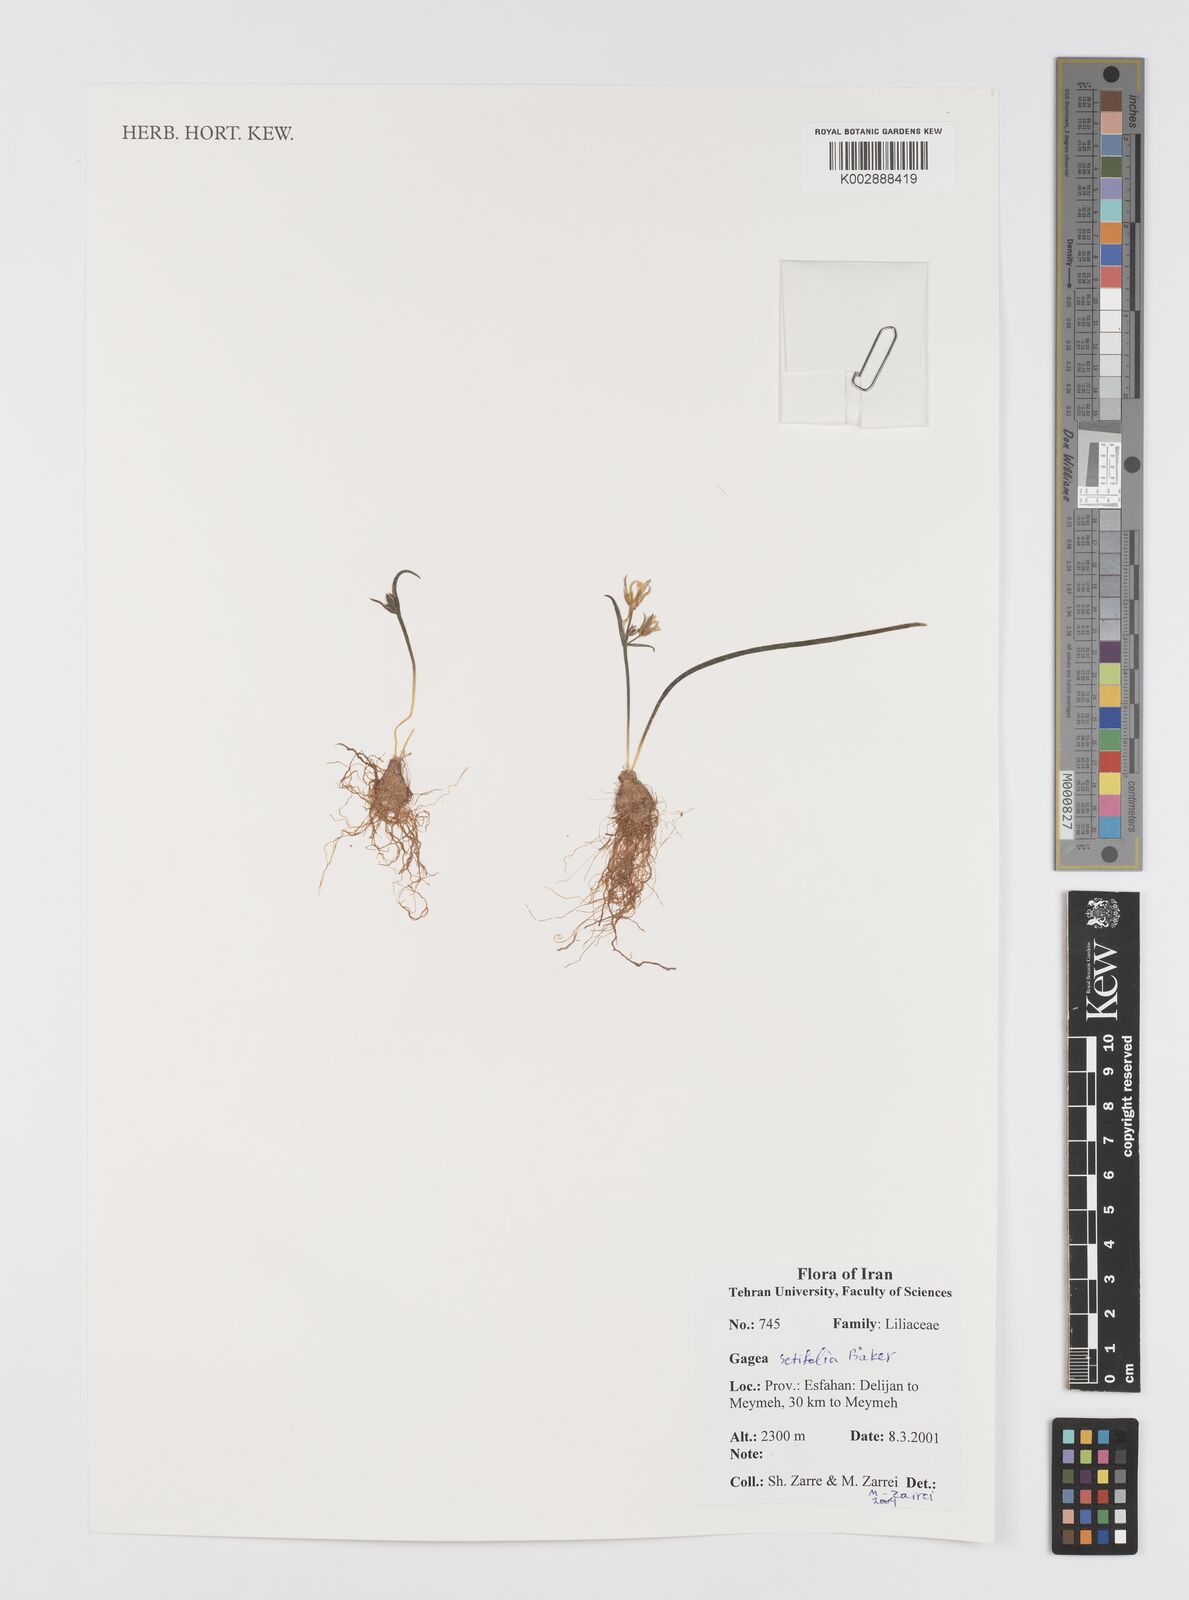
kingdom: Plantae
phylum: Tracheophyta
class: Liliopsida
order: Liliales
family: Liliaceae
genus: Gagea
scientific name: Gagea setifolia
